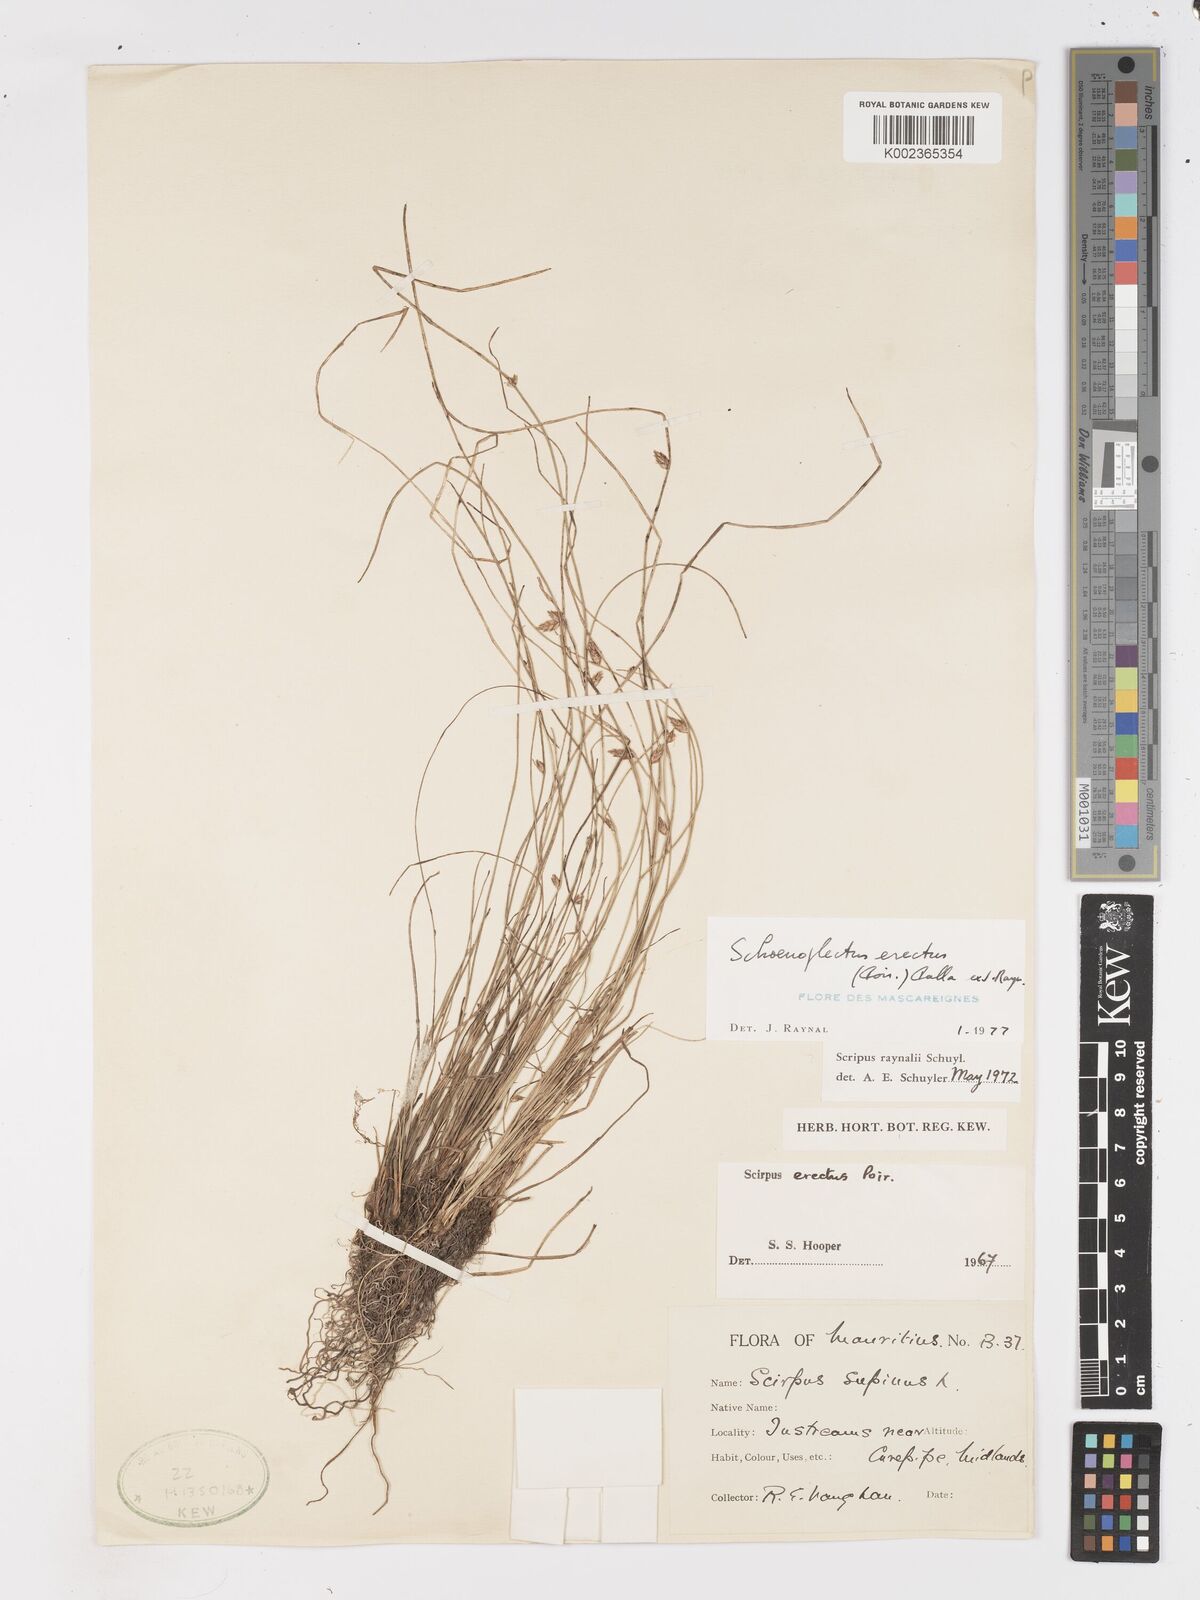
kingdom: Plantae
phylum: Tracheophyta
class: Liliopsida
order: Poales
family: Cyperaceae
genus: Schoenoplectiella
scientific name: Schoenoplectiella erecta
